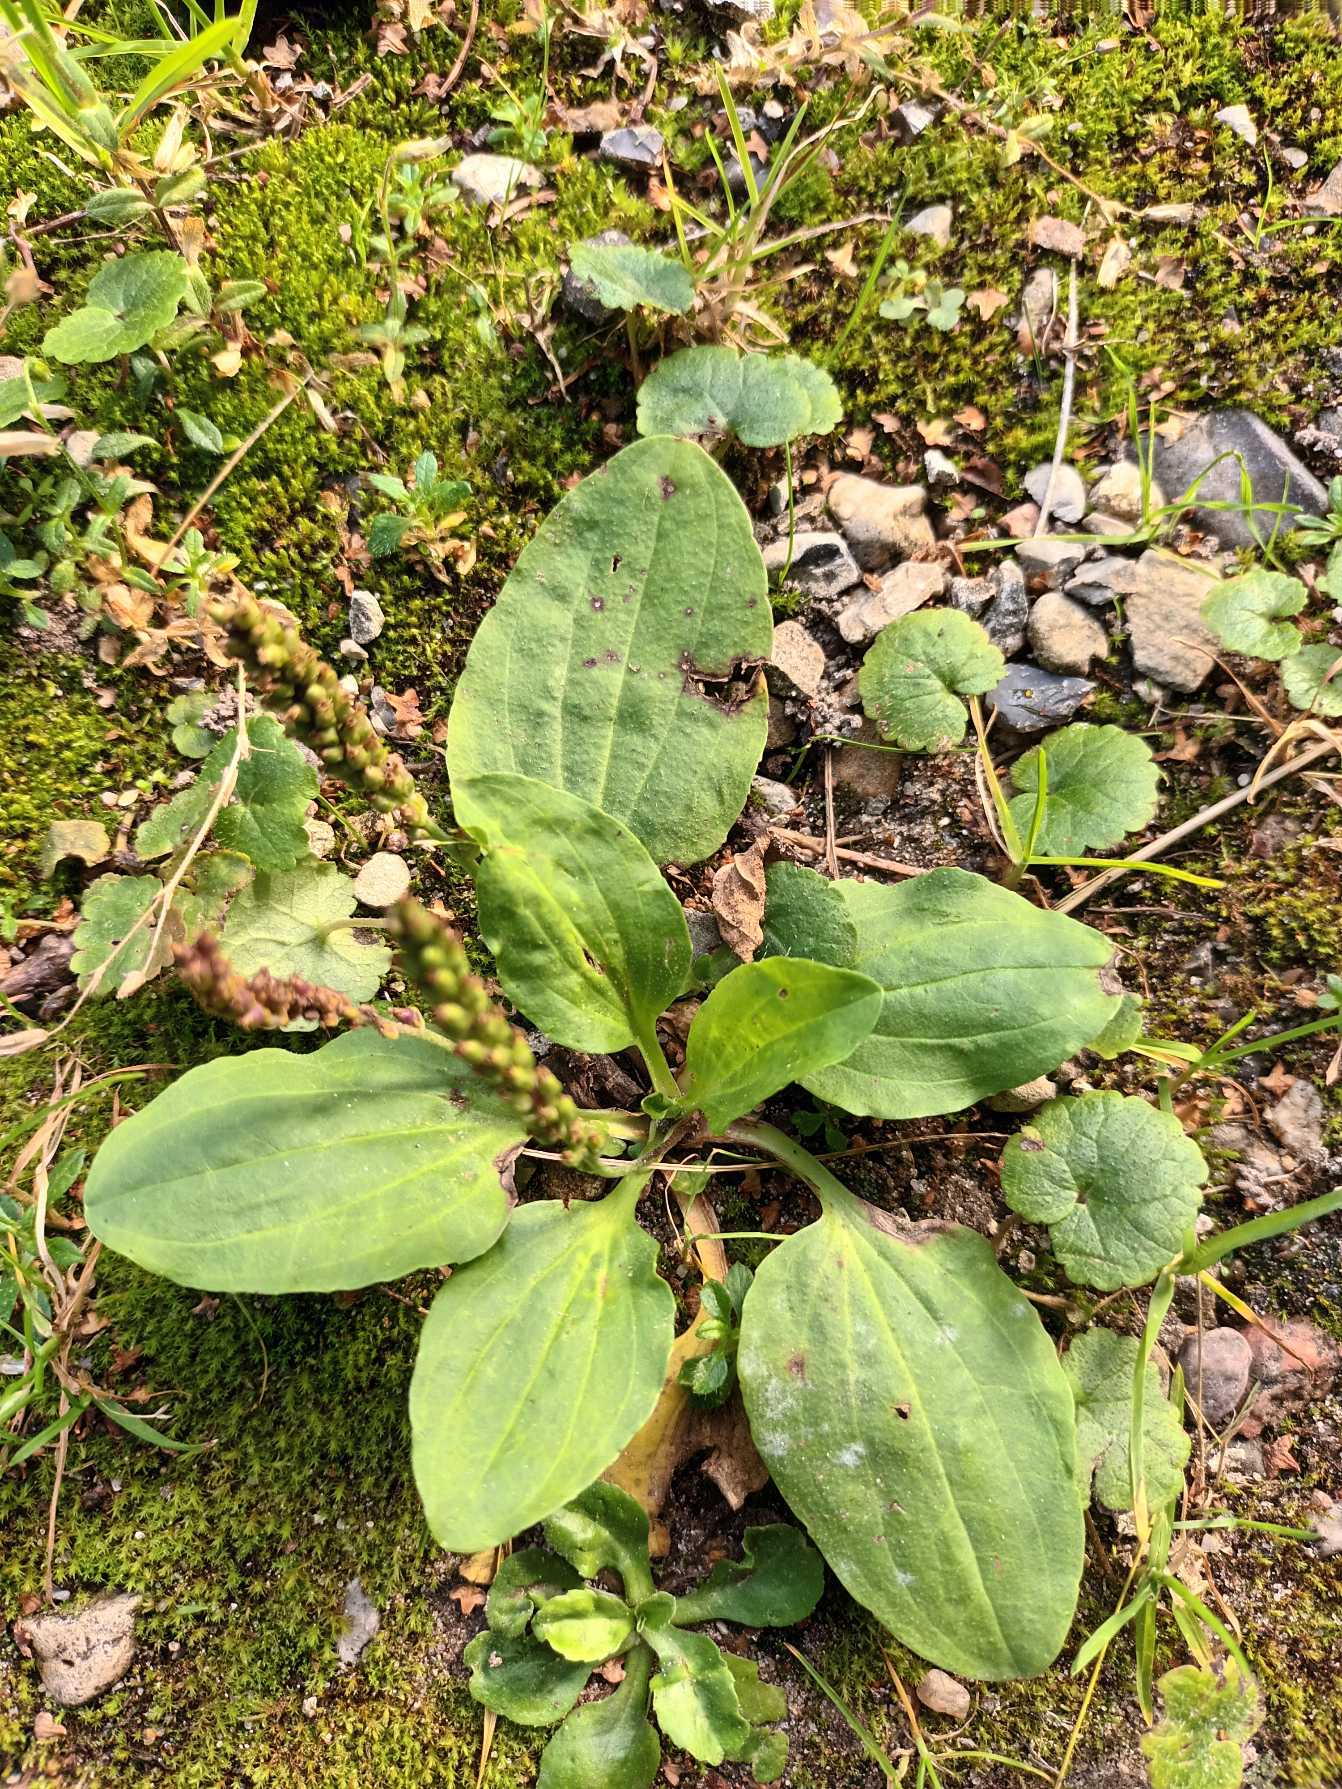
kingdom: Plantae
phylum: Tracheophyta
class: Magnoliopsida
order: Lamiales
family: Plantaginaceae
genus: Plantago
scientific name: Plantago major
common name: Glat vejbred
